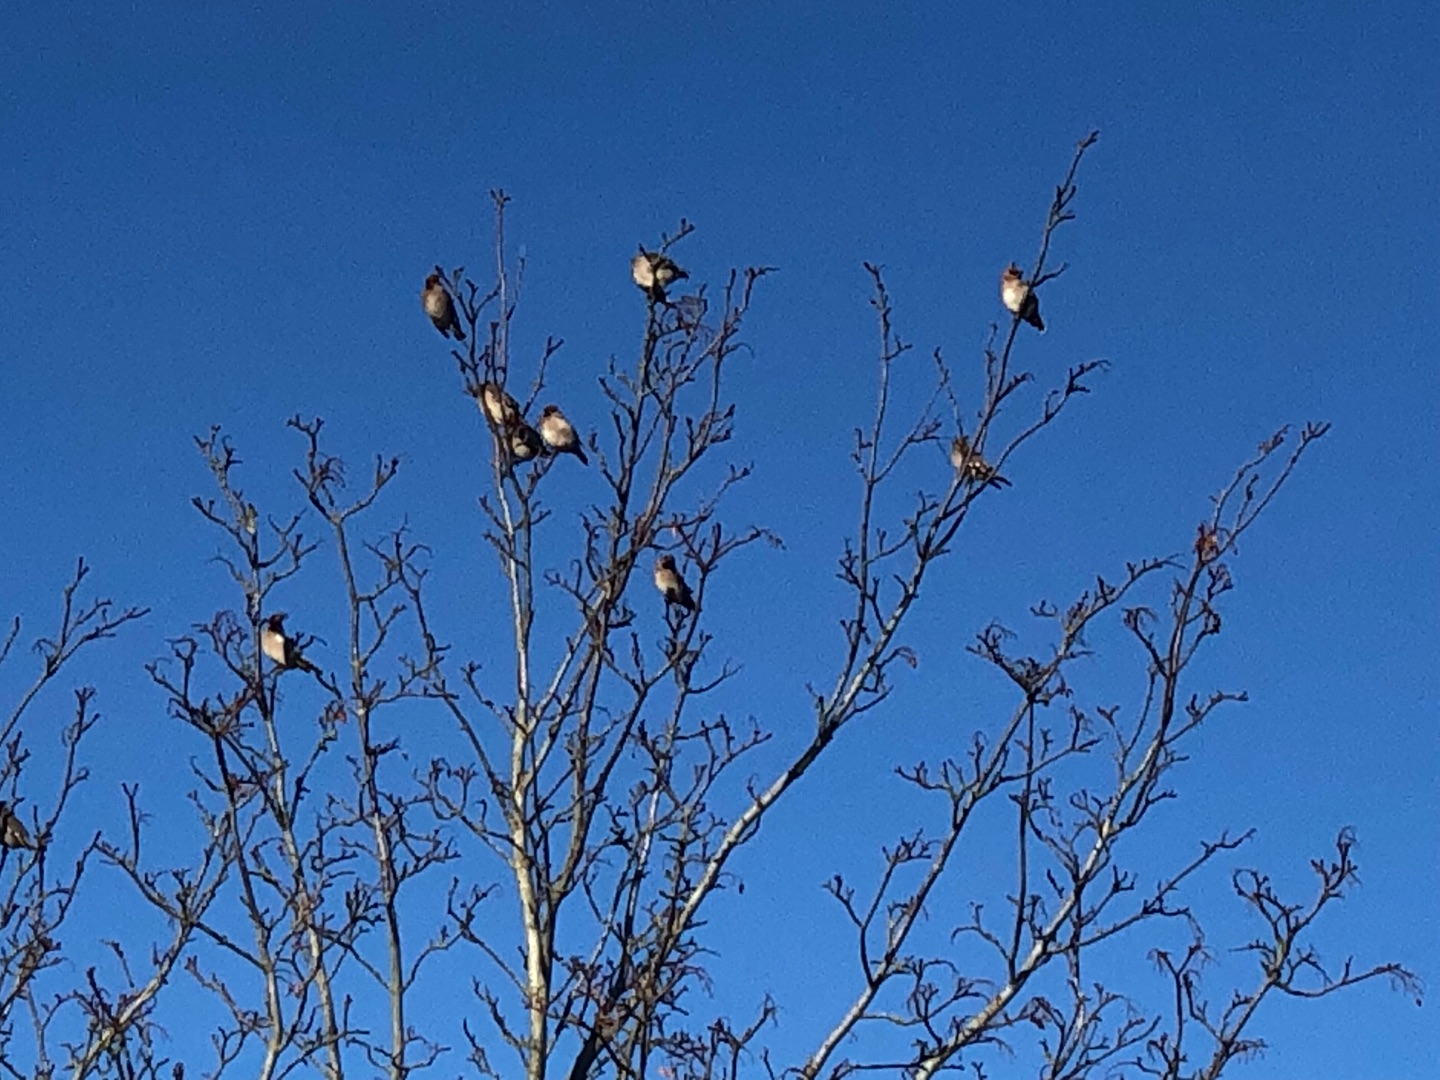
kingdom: Animalia
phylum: Chordata
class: Aves
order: Passeriformes
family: Bombycillidae
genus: Bombycilla
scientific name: Bombycilla garrulus
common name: Silkehale
